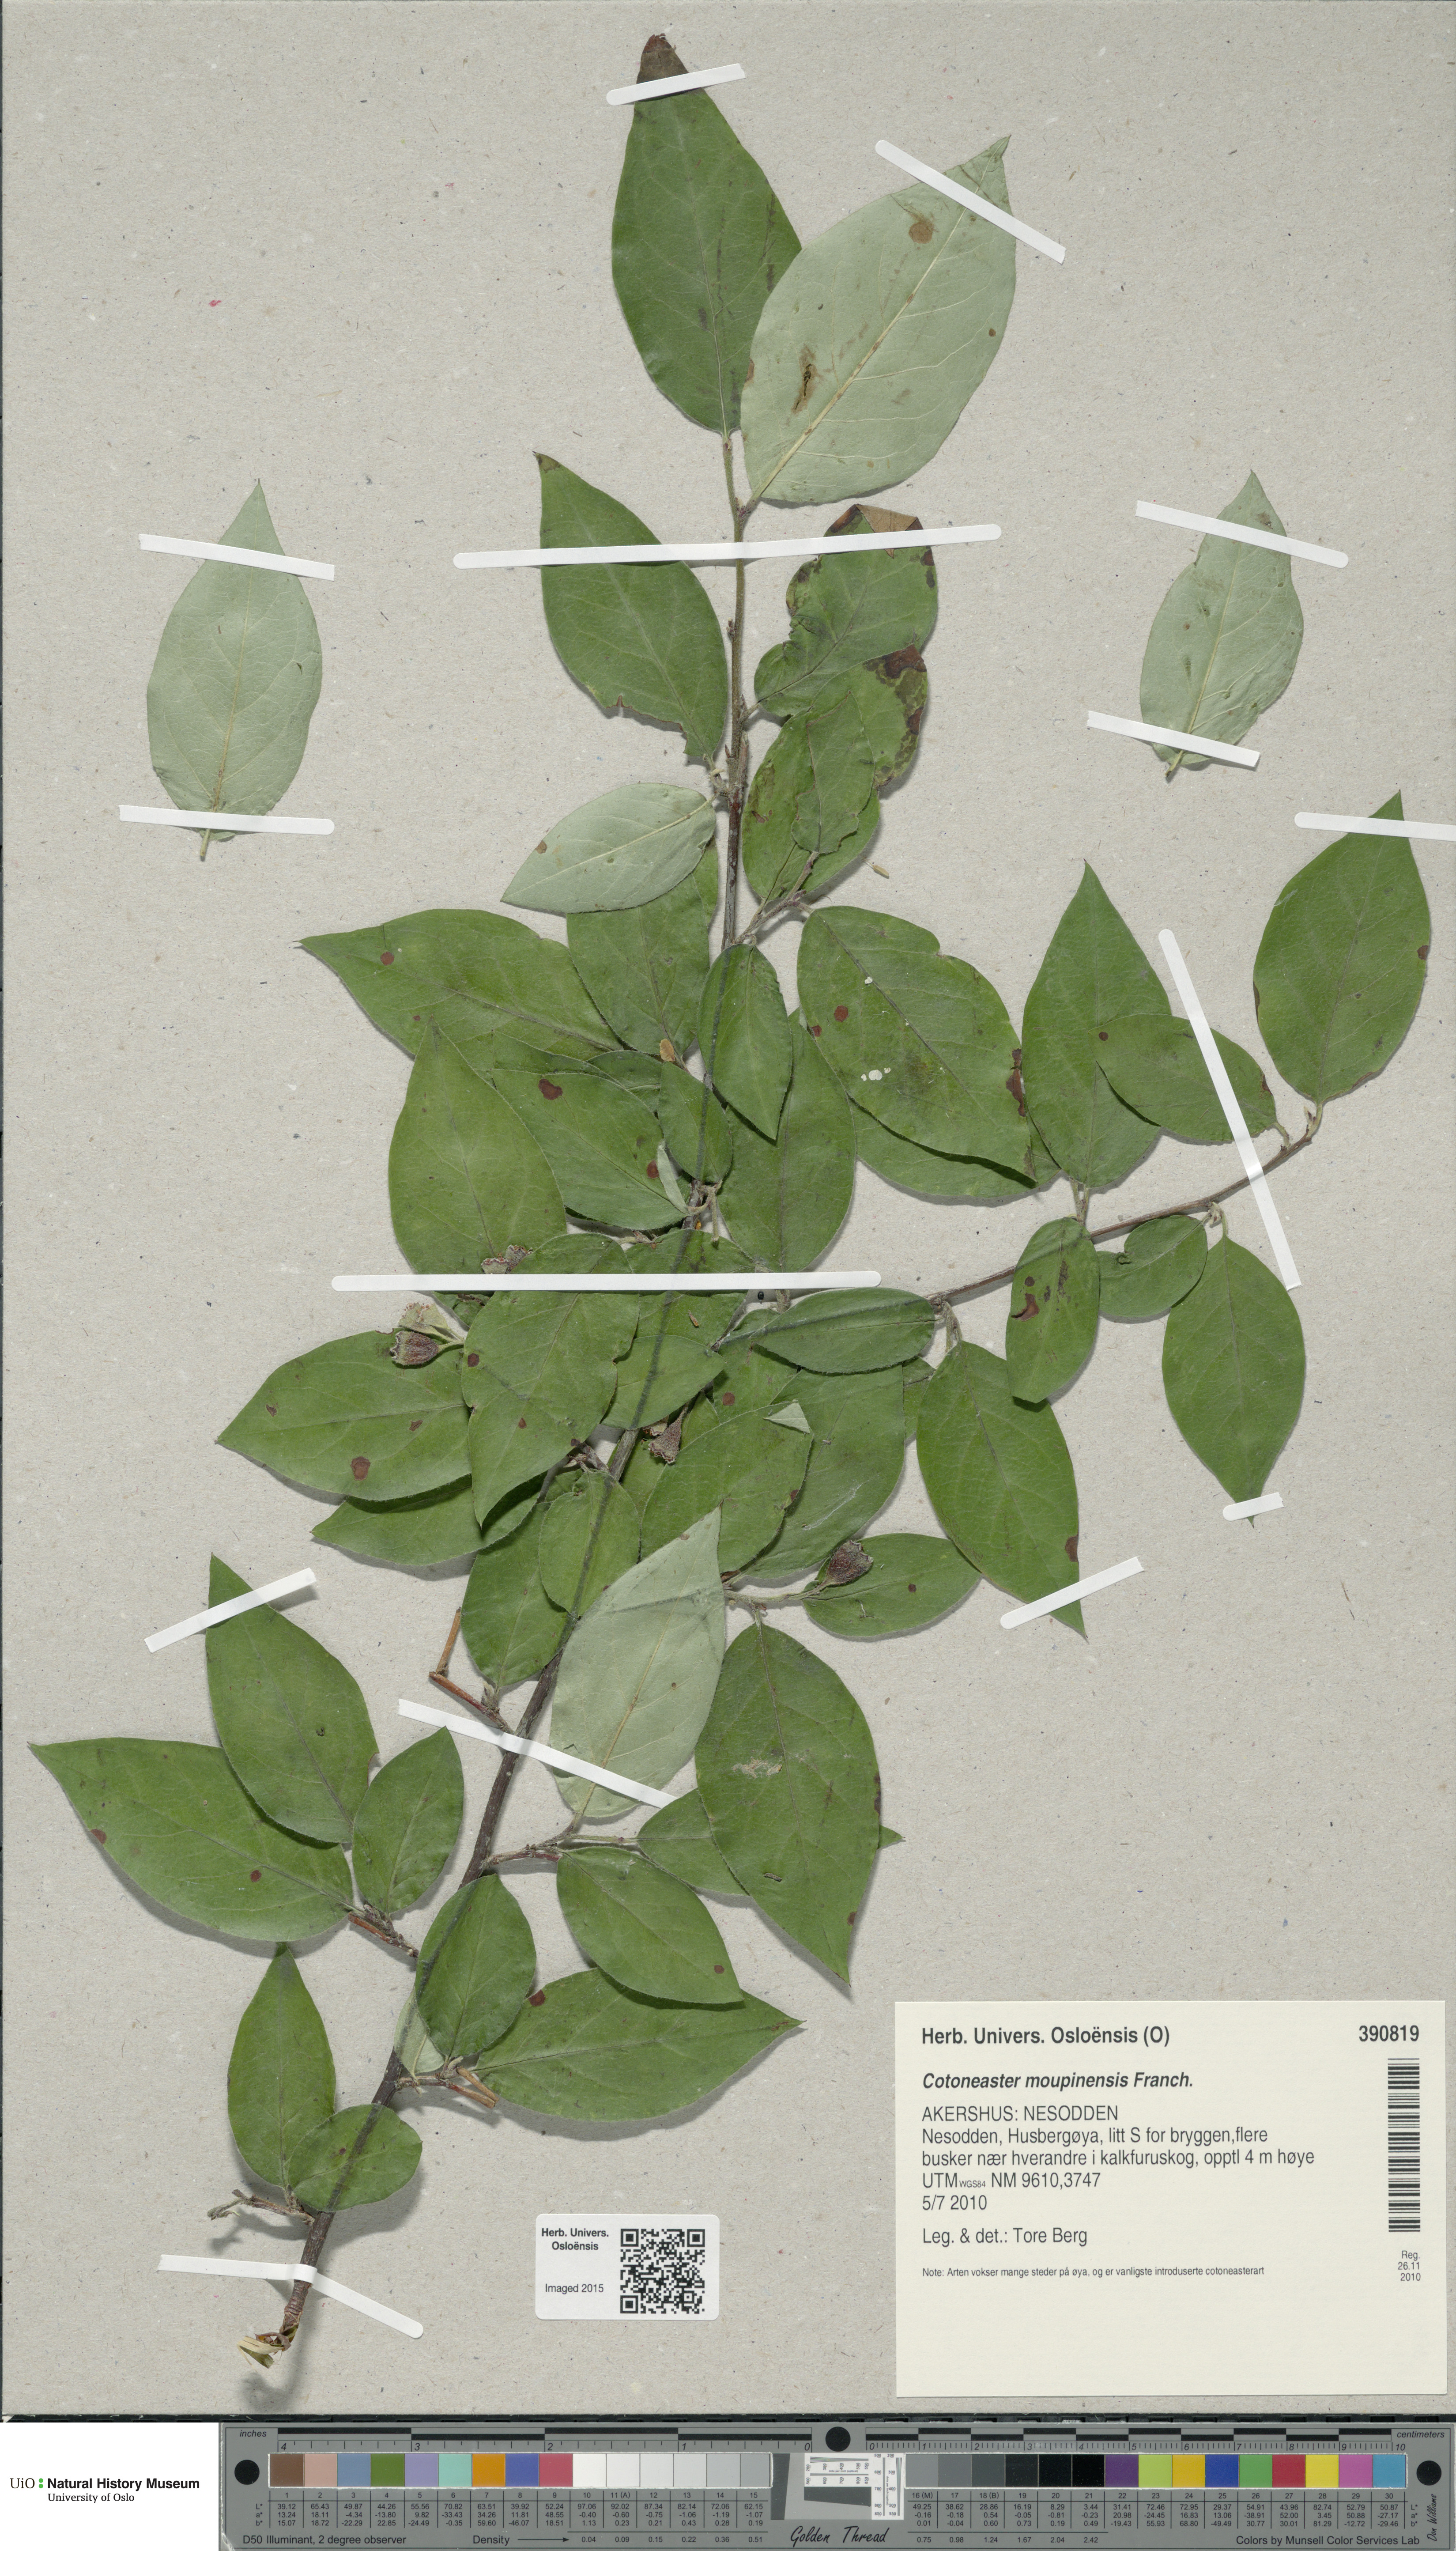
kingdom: Plantae
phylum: Tracheophyta
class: Magnoliopsida
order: Rosales
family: Rosaceae
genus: Cotoneaster
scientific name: Cotoneaster moupinensis
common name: Moupin cotoneaster
